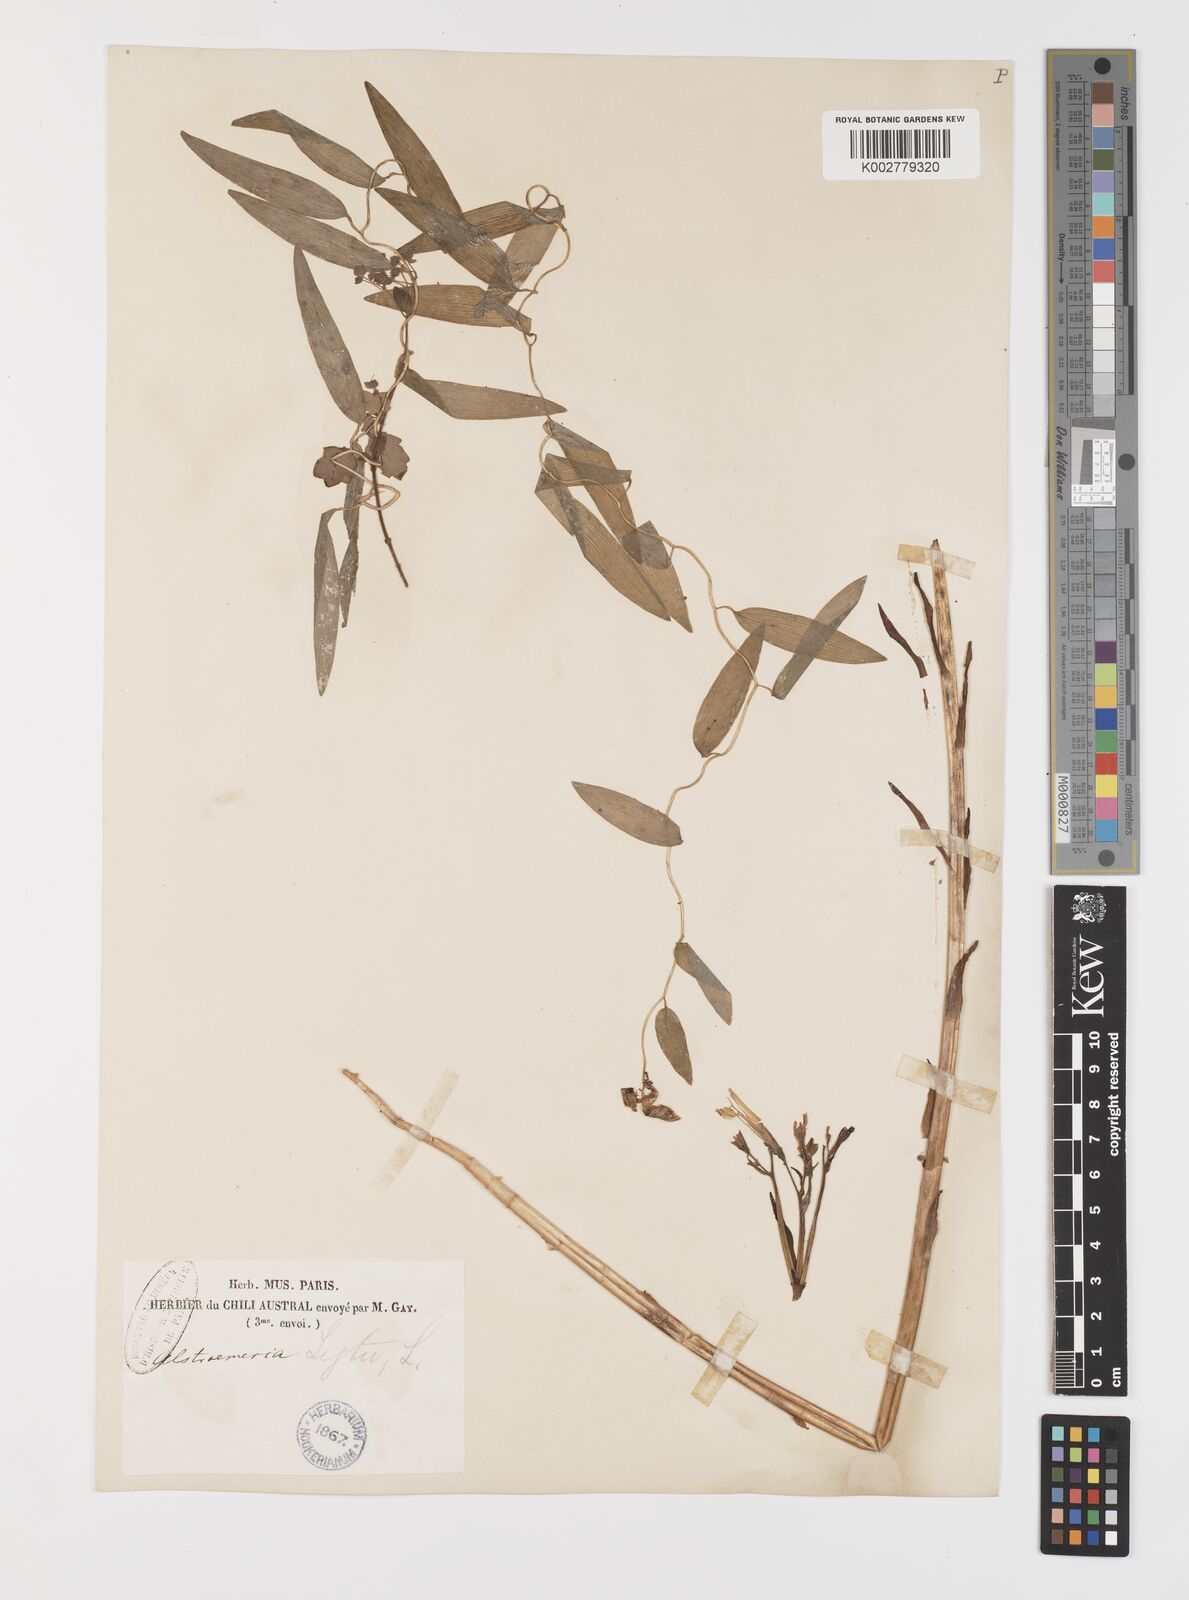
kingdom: Plantae
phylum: Tracheophyta
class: Liliopsida
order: Liliales
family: Alstroemeriaceae
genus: Alstroemeria
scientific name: Alstroemeria ligtu
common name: St. martin's-flower
